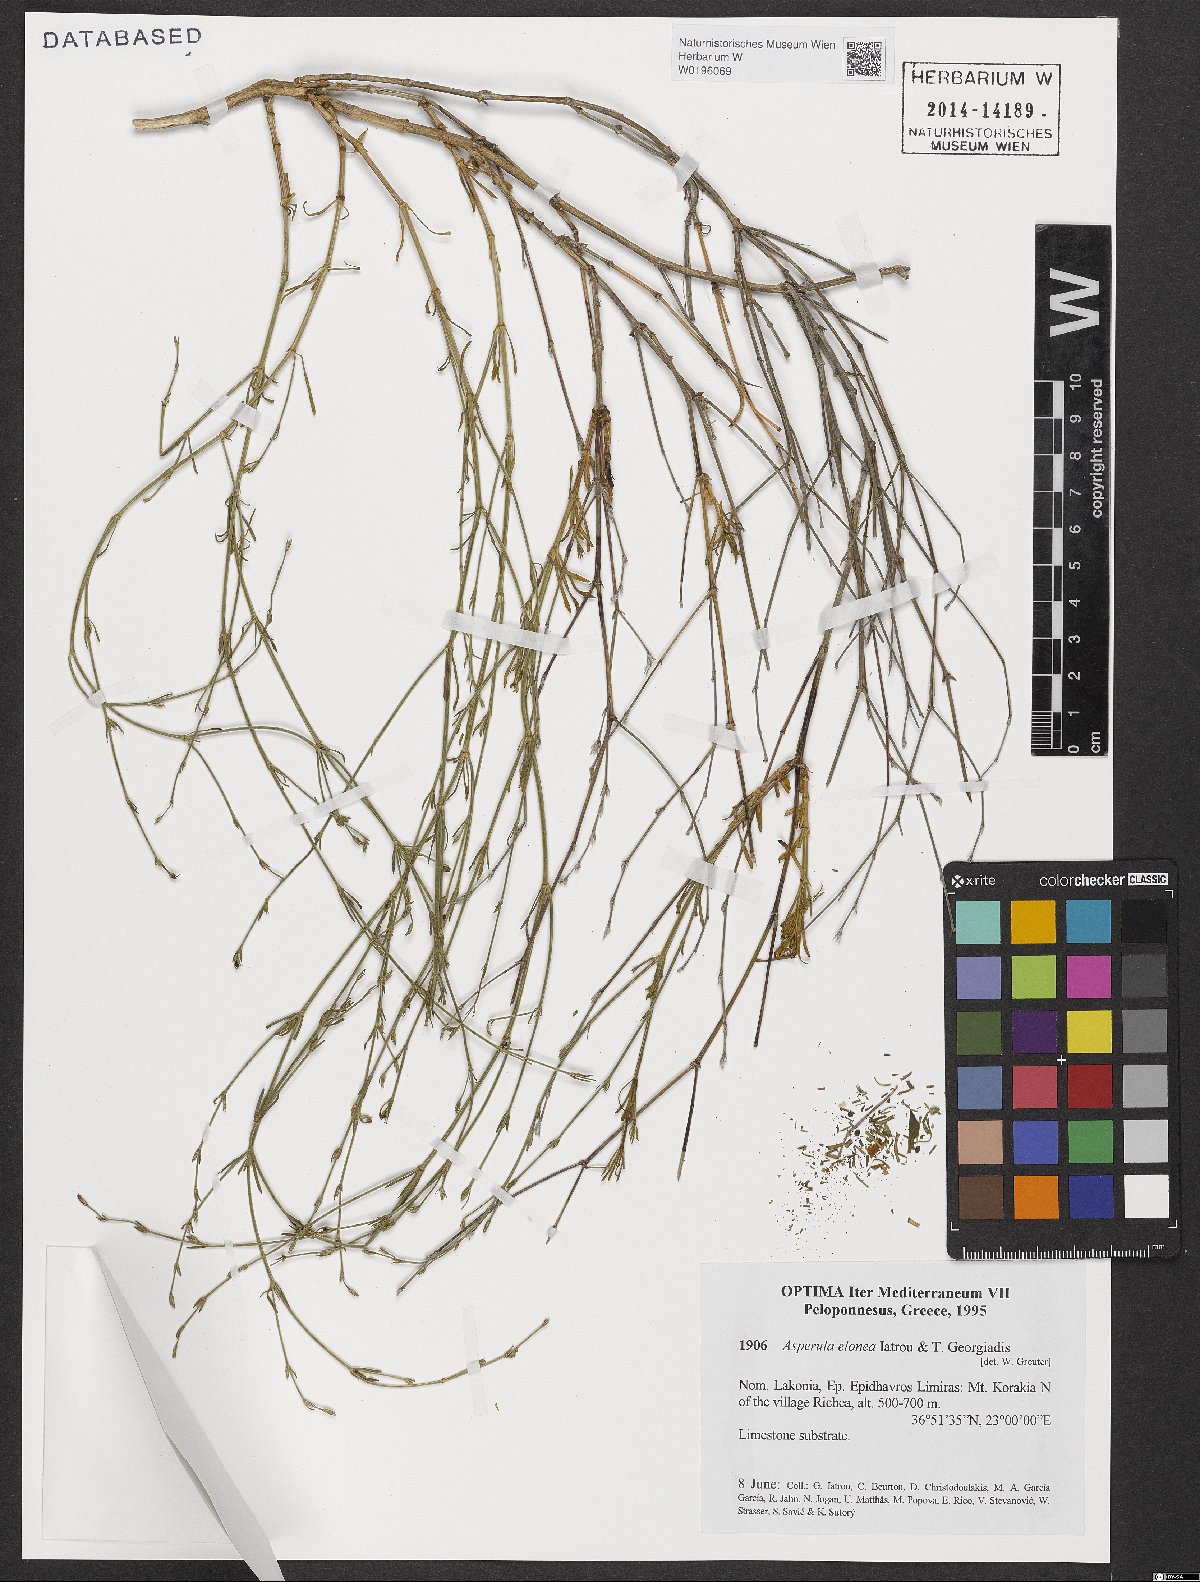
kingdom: Plantae
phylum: Tracheophyta
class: Magnoliopsida
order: Gentianales
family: Rubiaceae
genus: Thliphthisa
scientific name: Thliphthisa elonea
